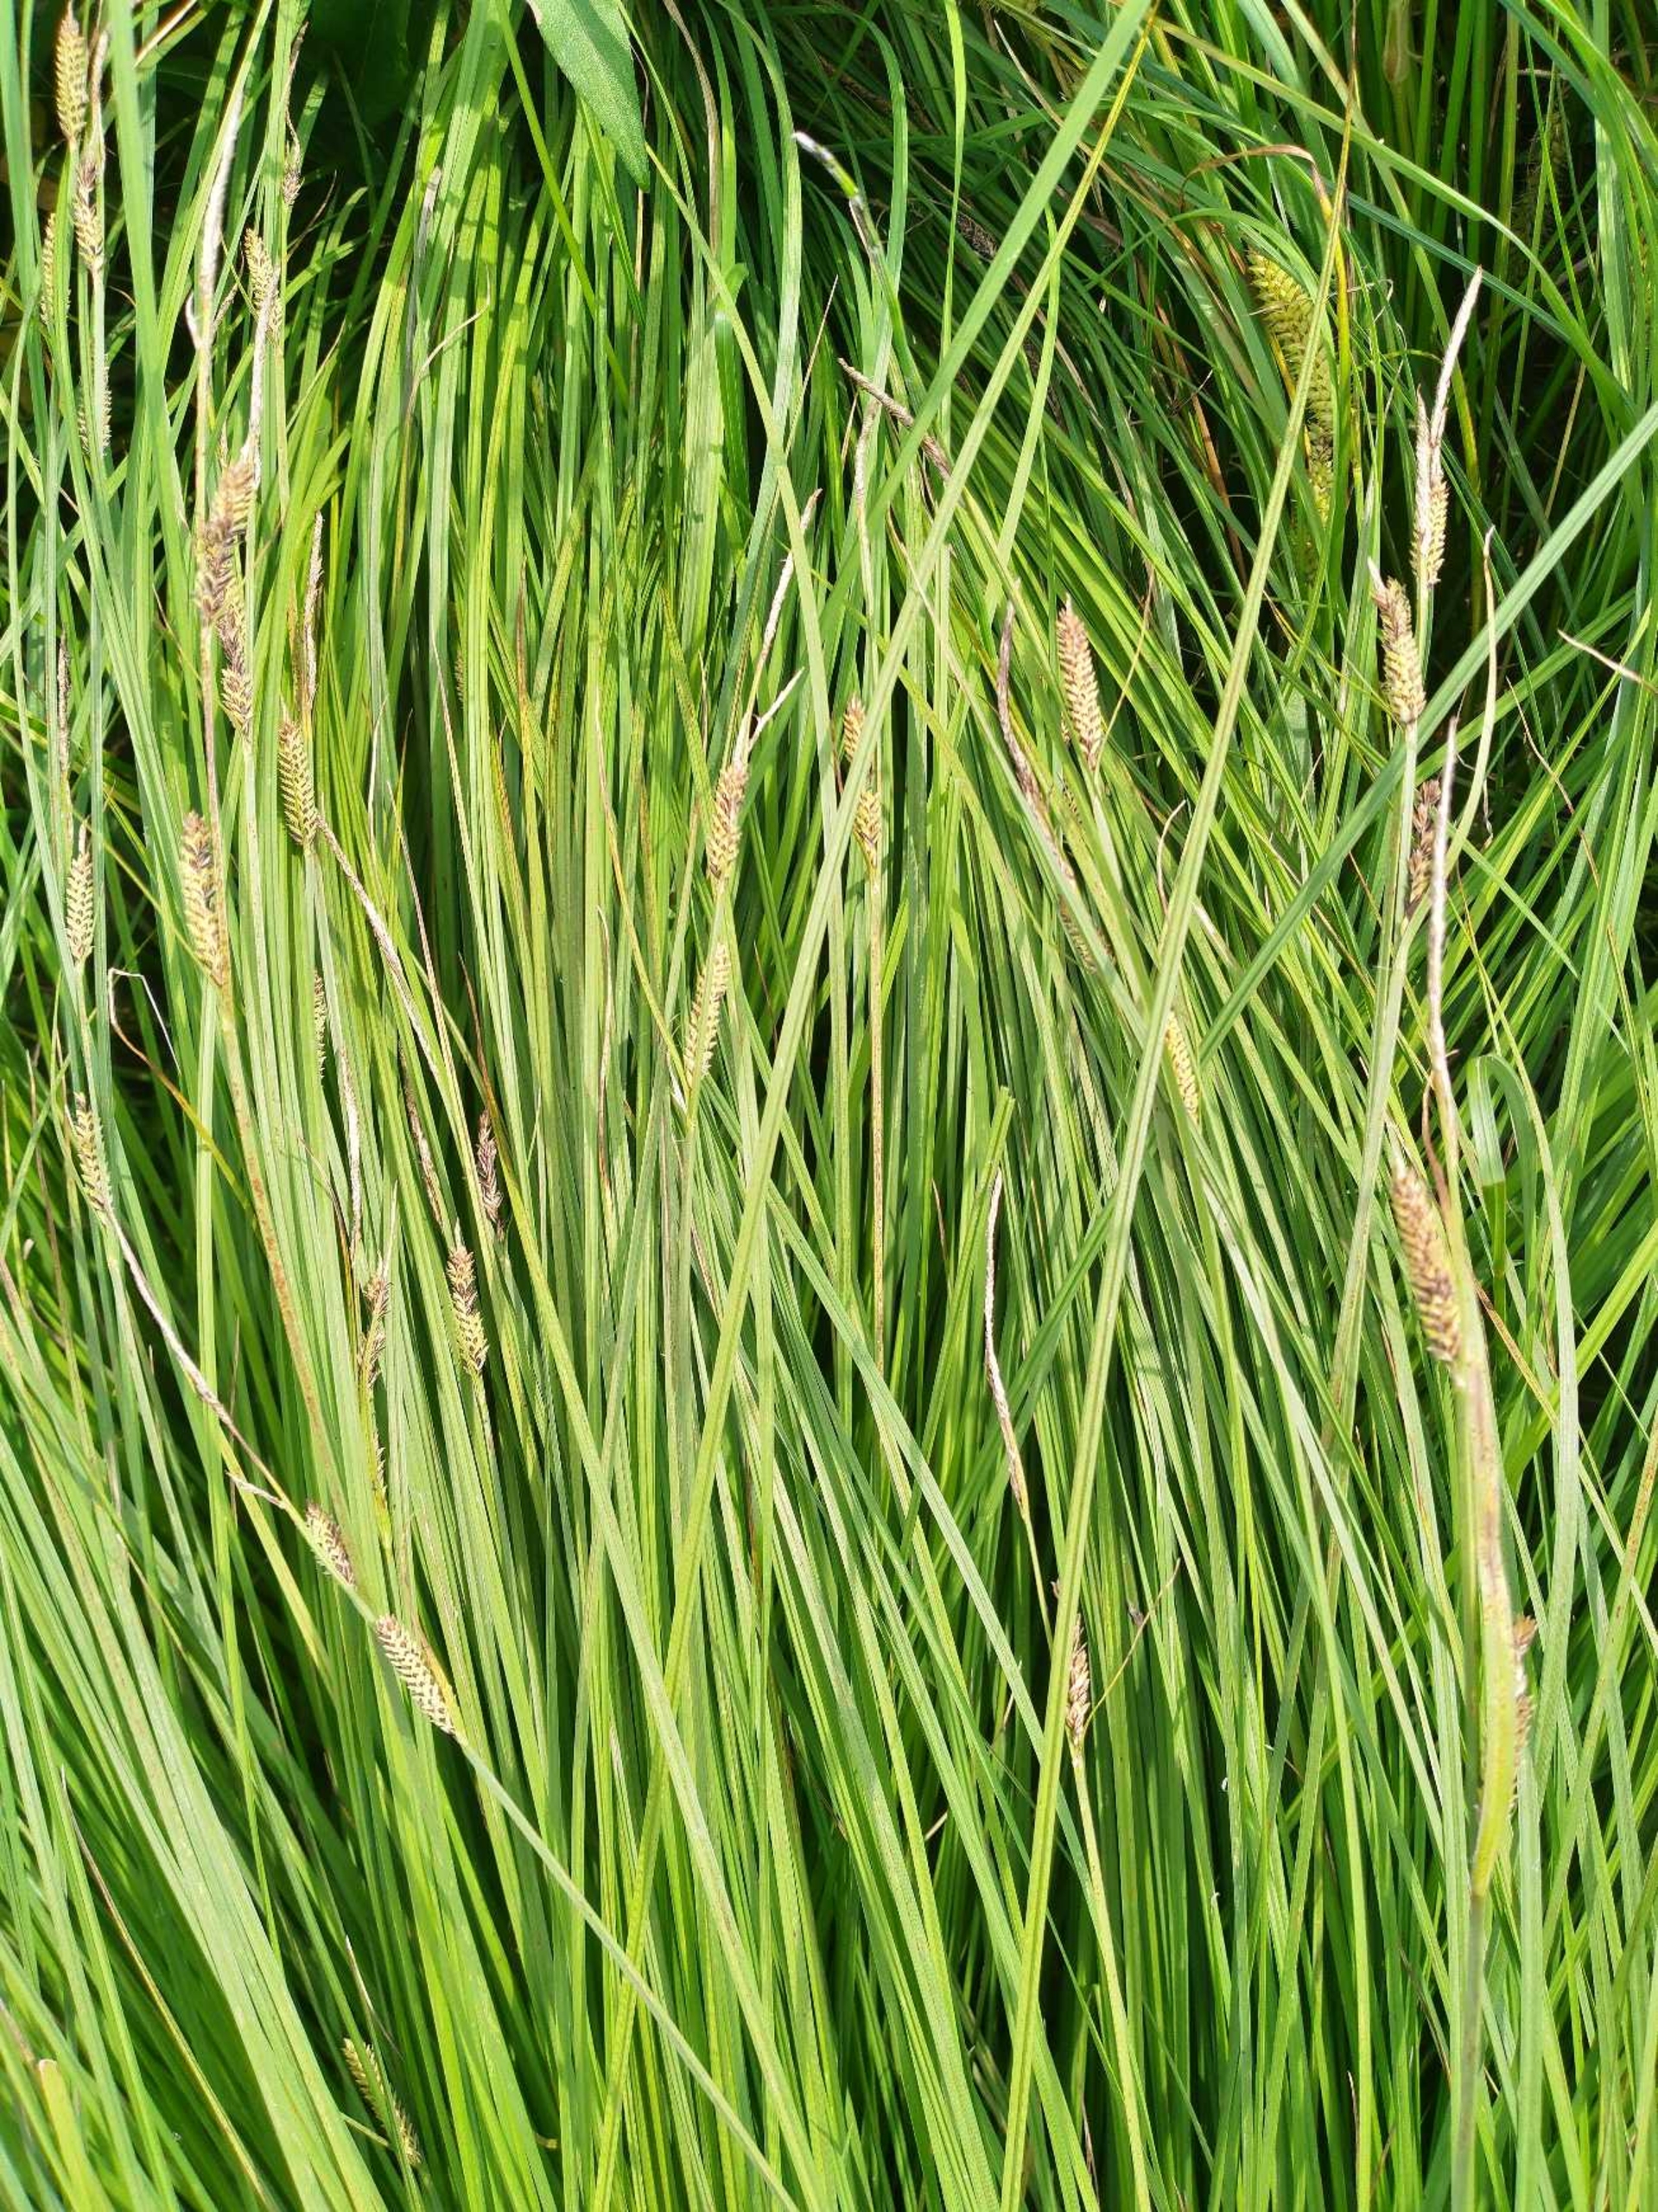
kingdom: Plantae
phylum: Tracheophyta
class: Liliopsida
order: Poales
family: Cyperaceae
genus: Carex
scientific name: Carex
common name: Tue-star × almindelig star
